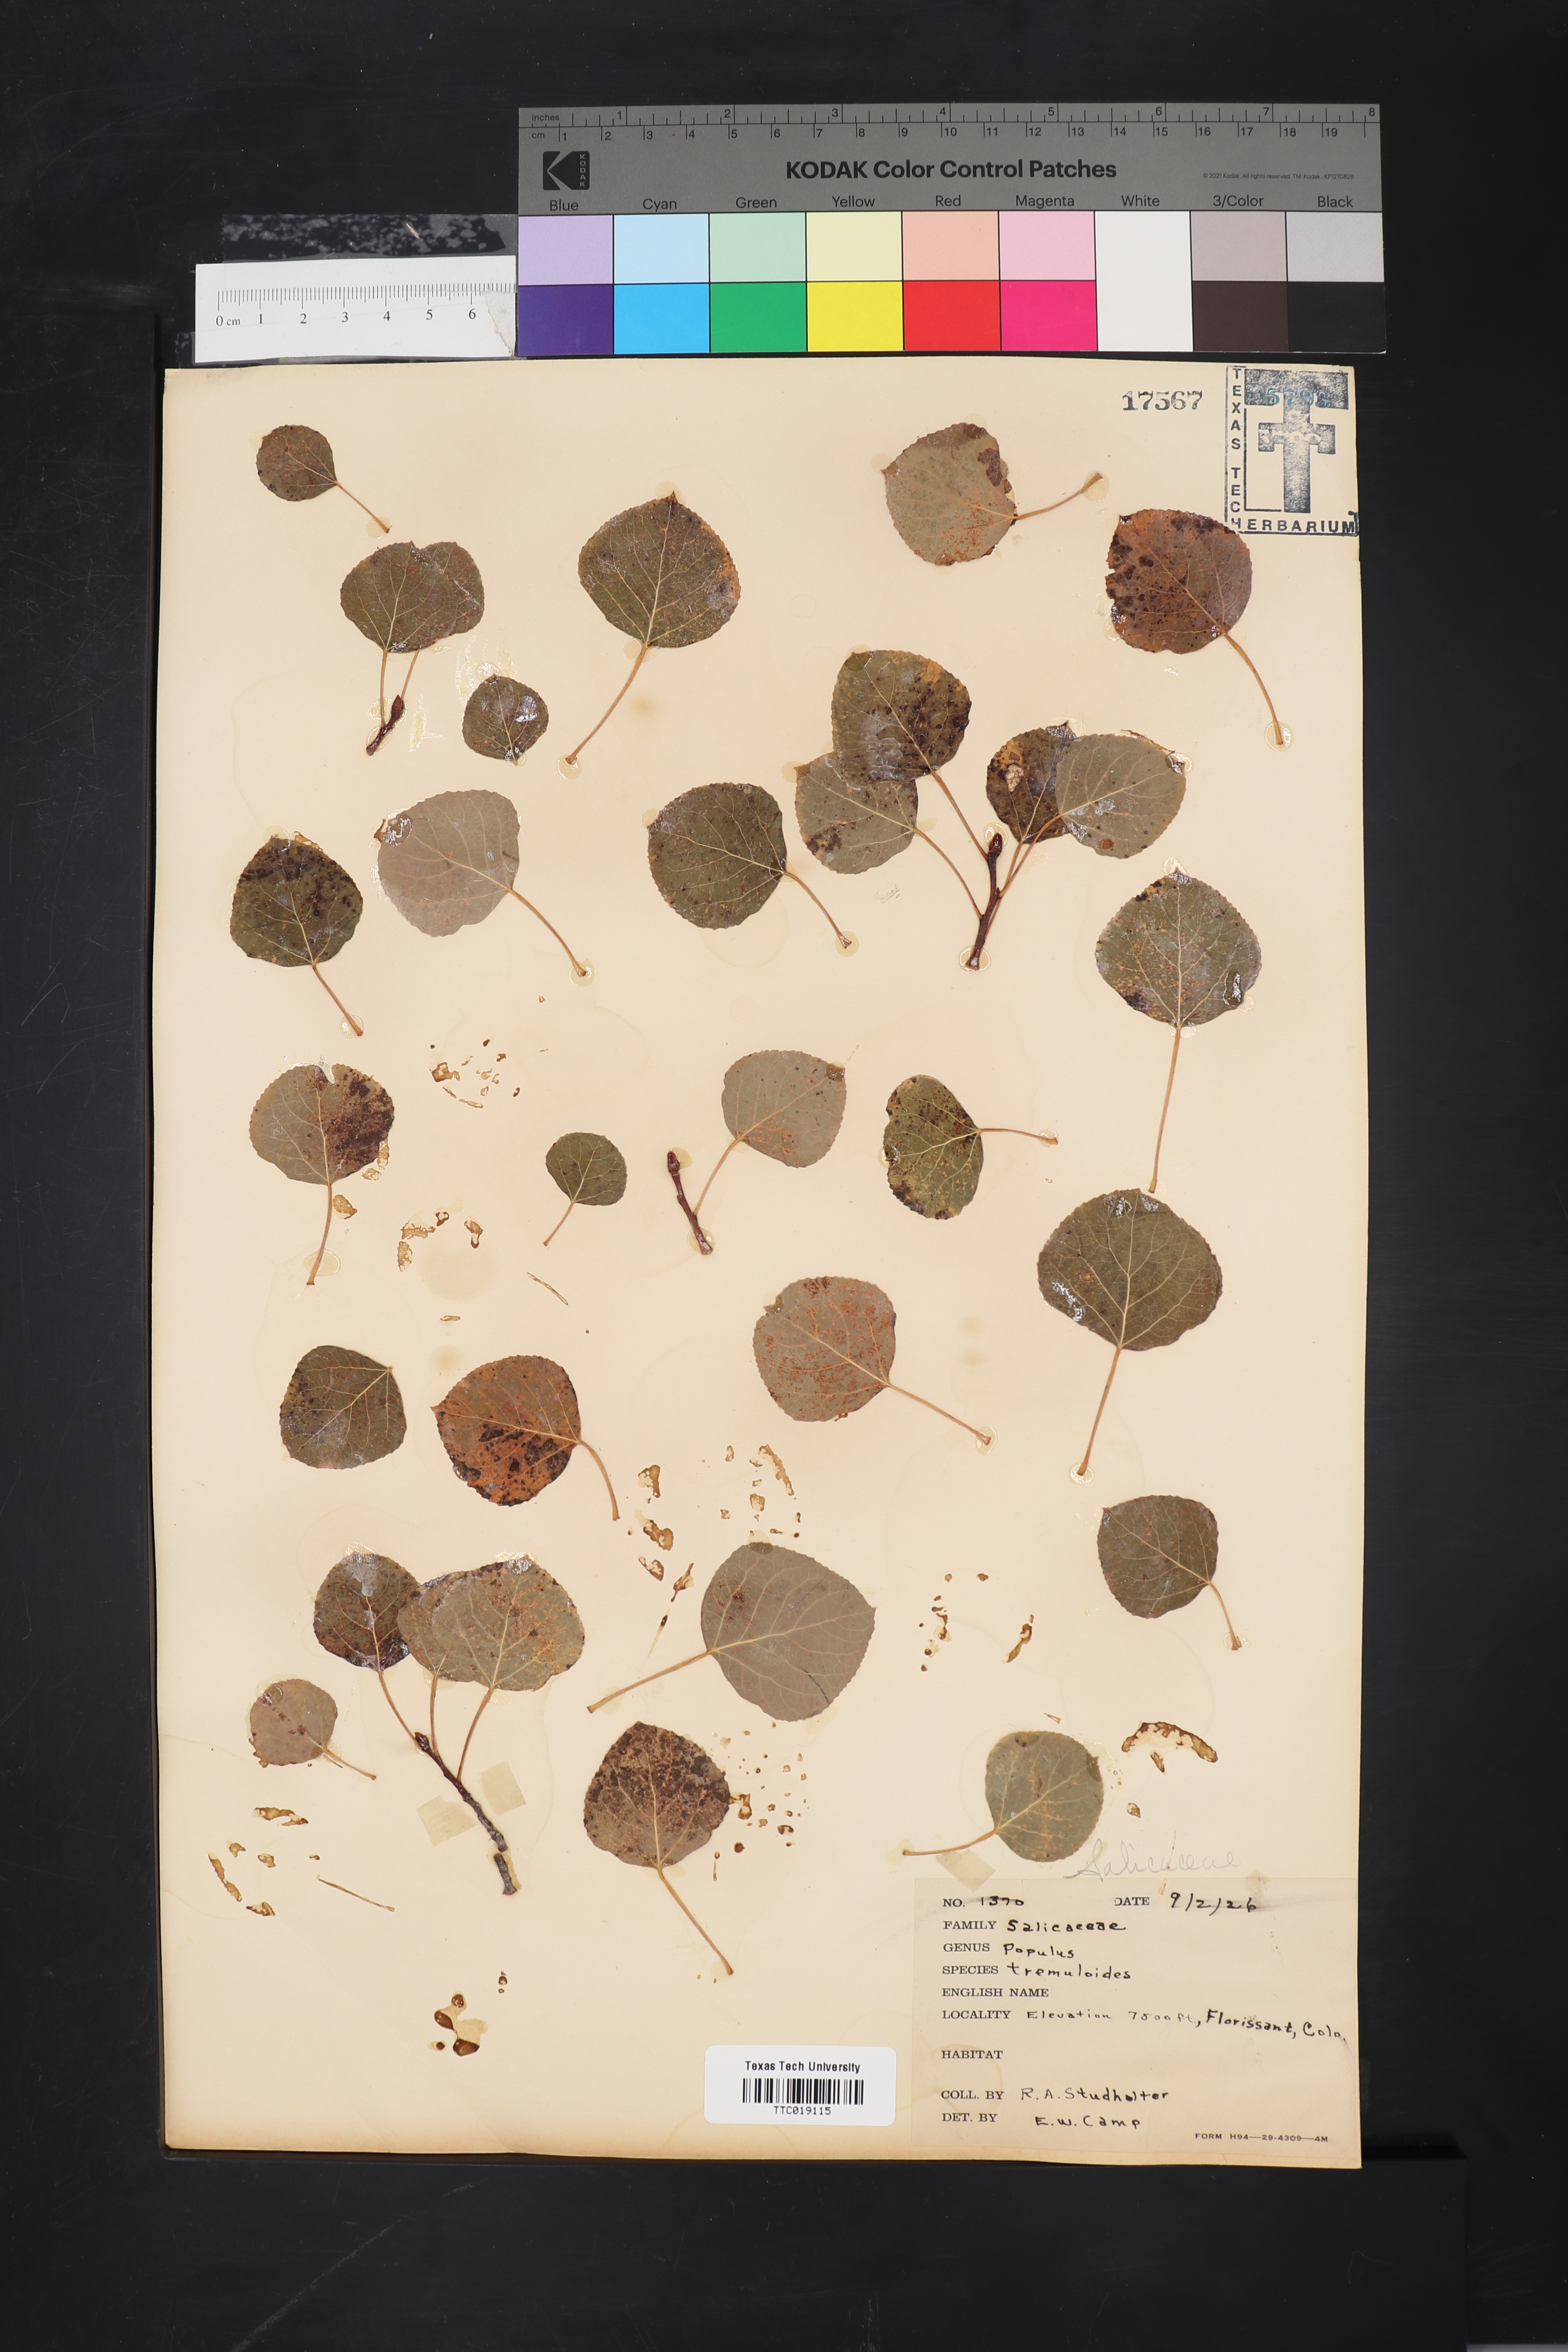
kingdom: Plantae
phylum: Tracheophyta
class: Magnoliopsida
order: Malpighiales
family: Salicaceae
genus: Populus
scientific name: Populus tremuloides
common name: Quaking aspen
